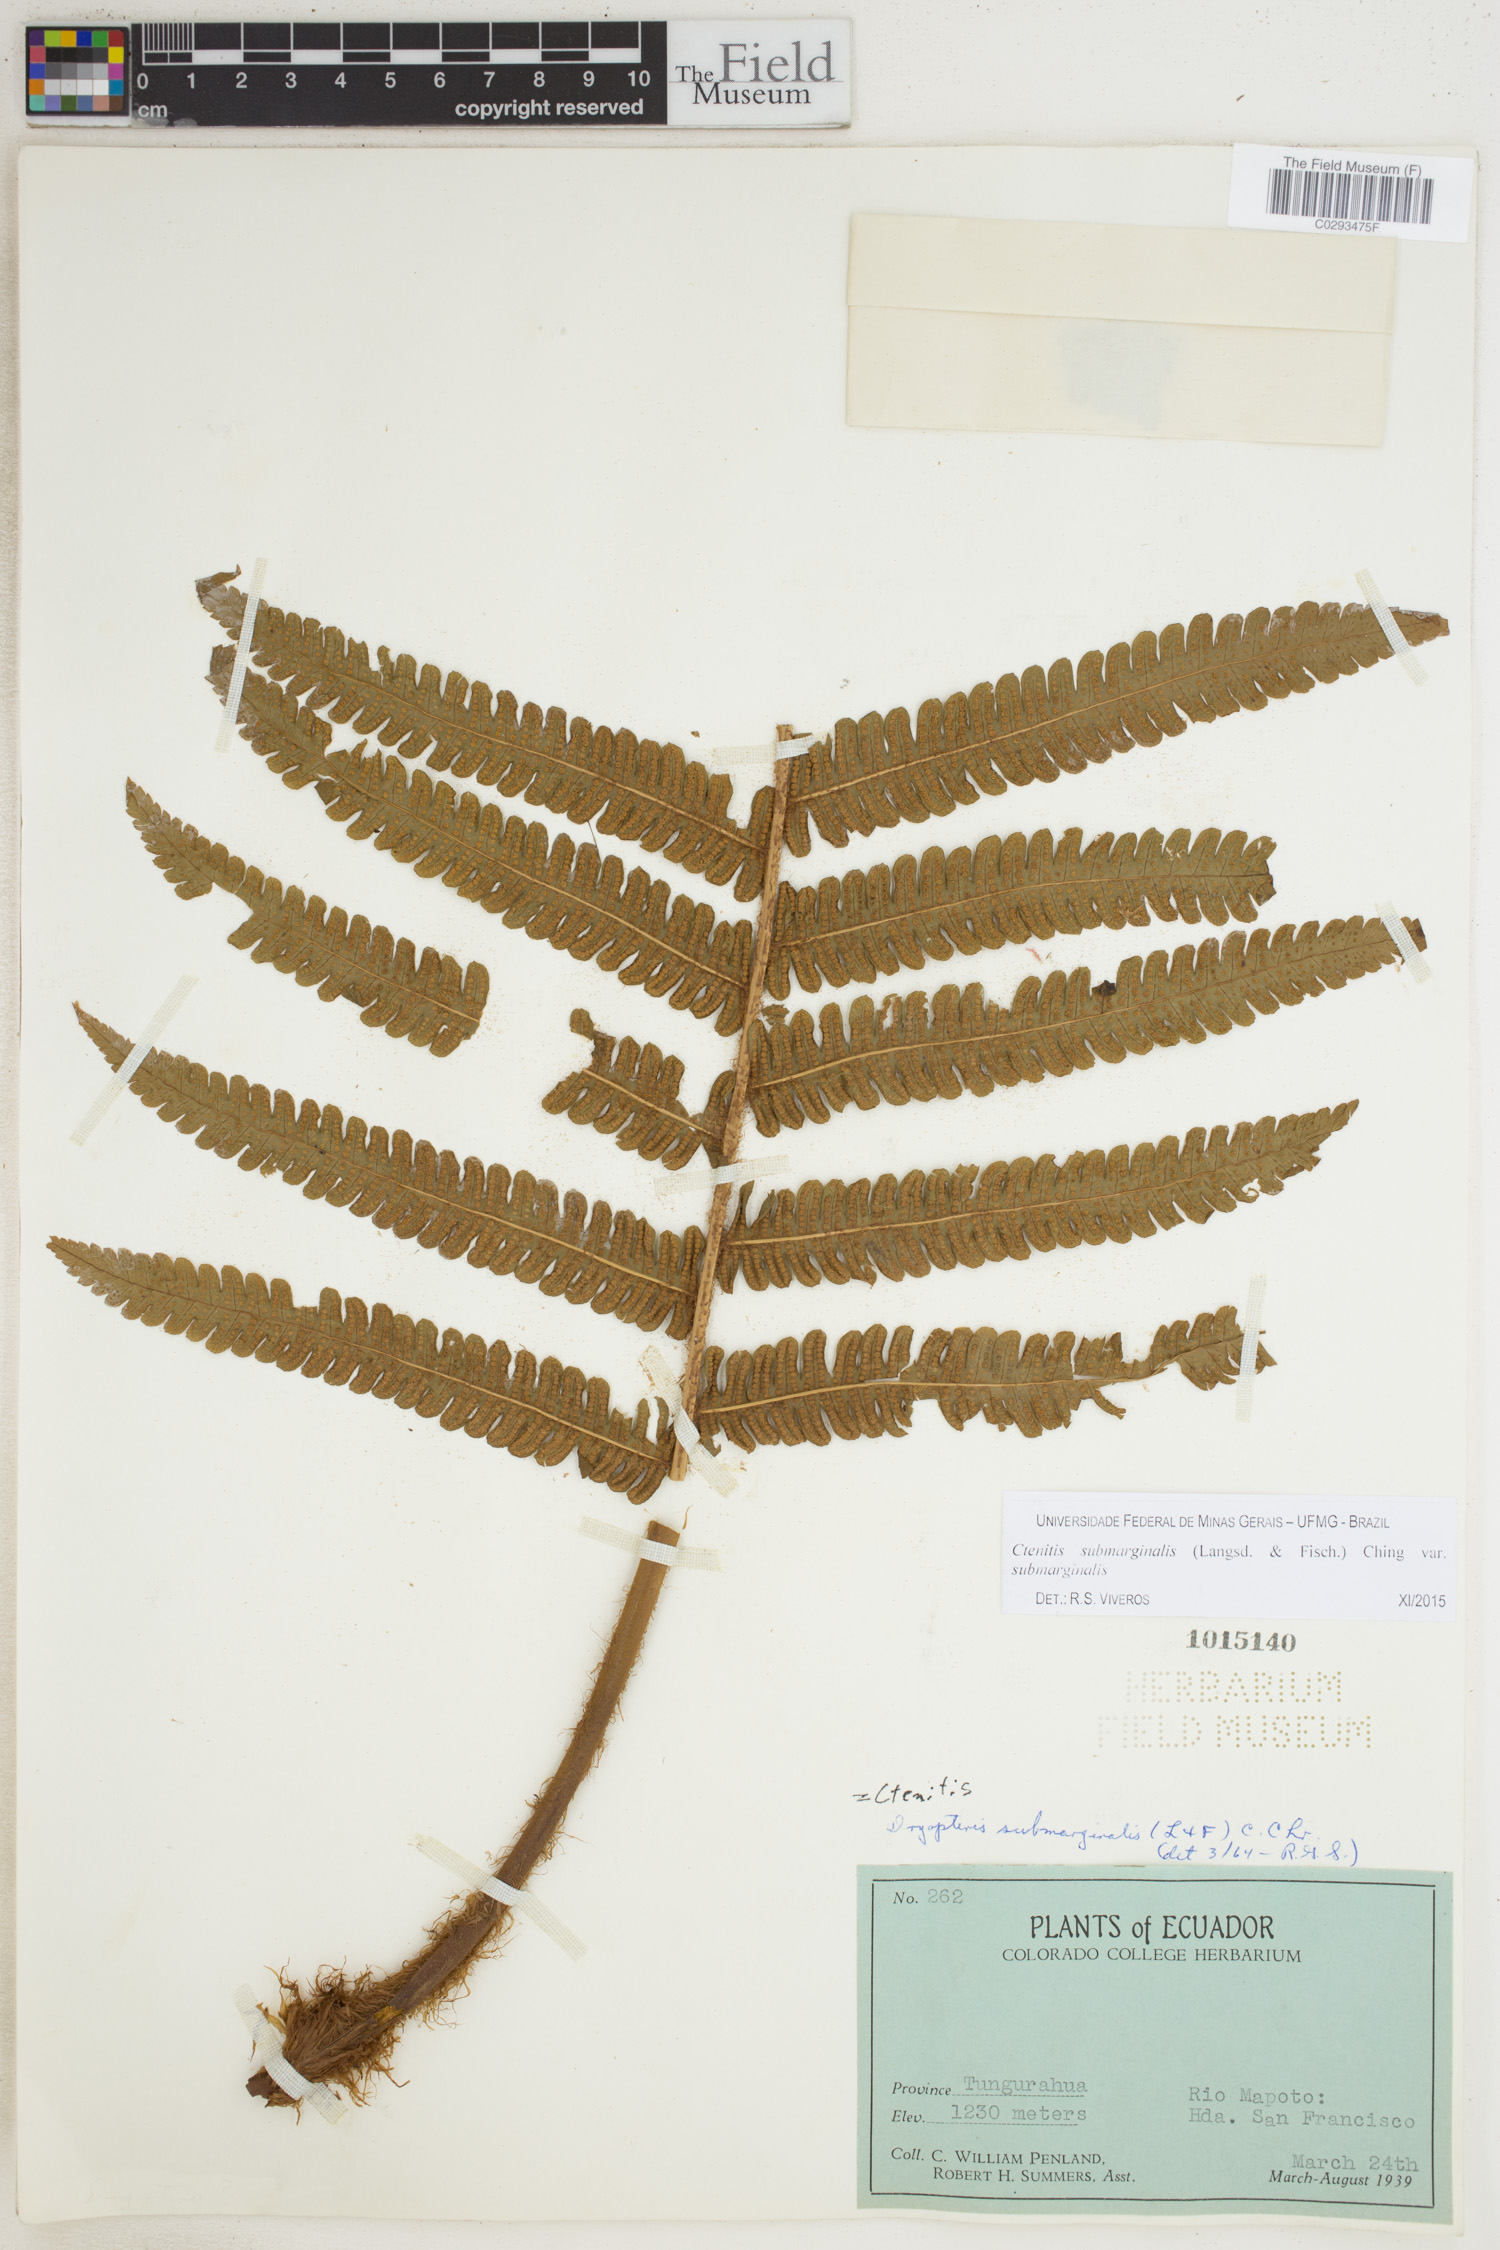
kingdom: Plantae
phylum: Tracheophyta
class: Polypodiopsida
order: Polypodiales
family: Dryopteridaceae
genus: Ctenitis
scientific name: Ctenitis submarginalis
